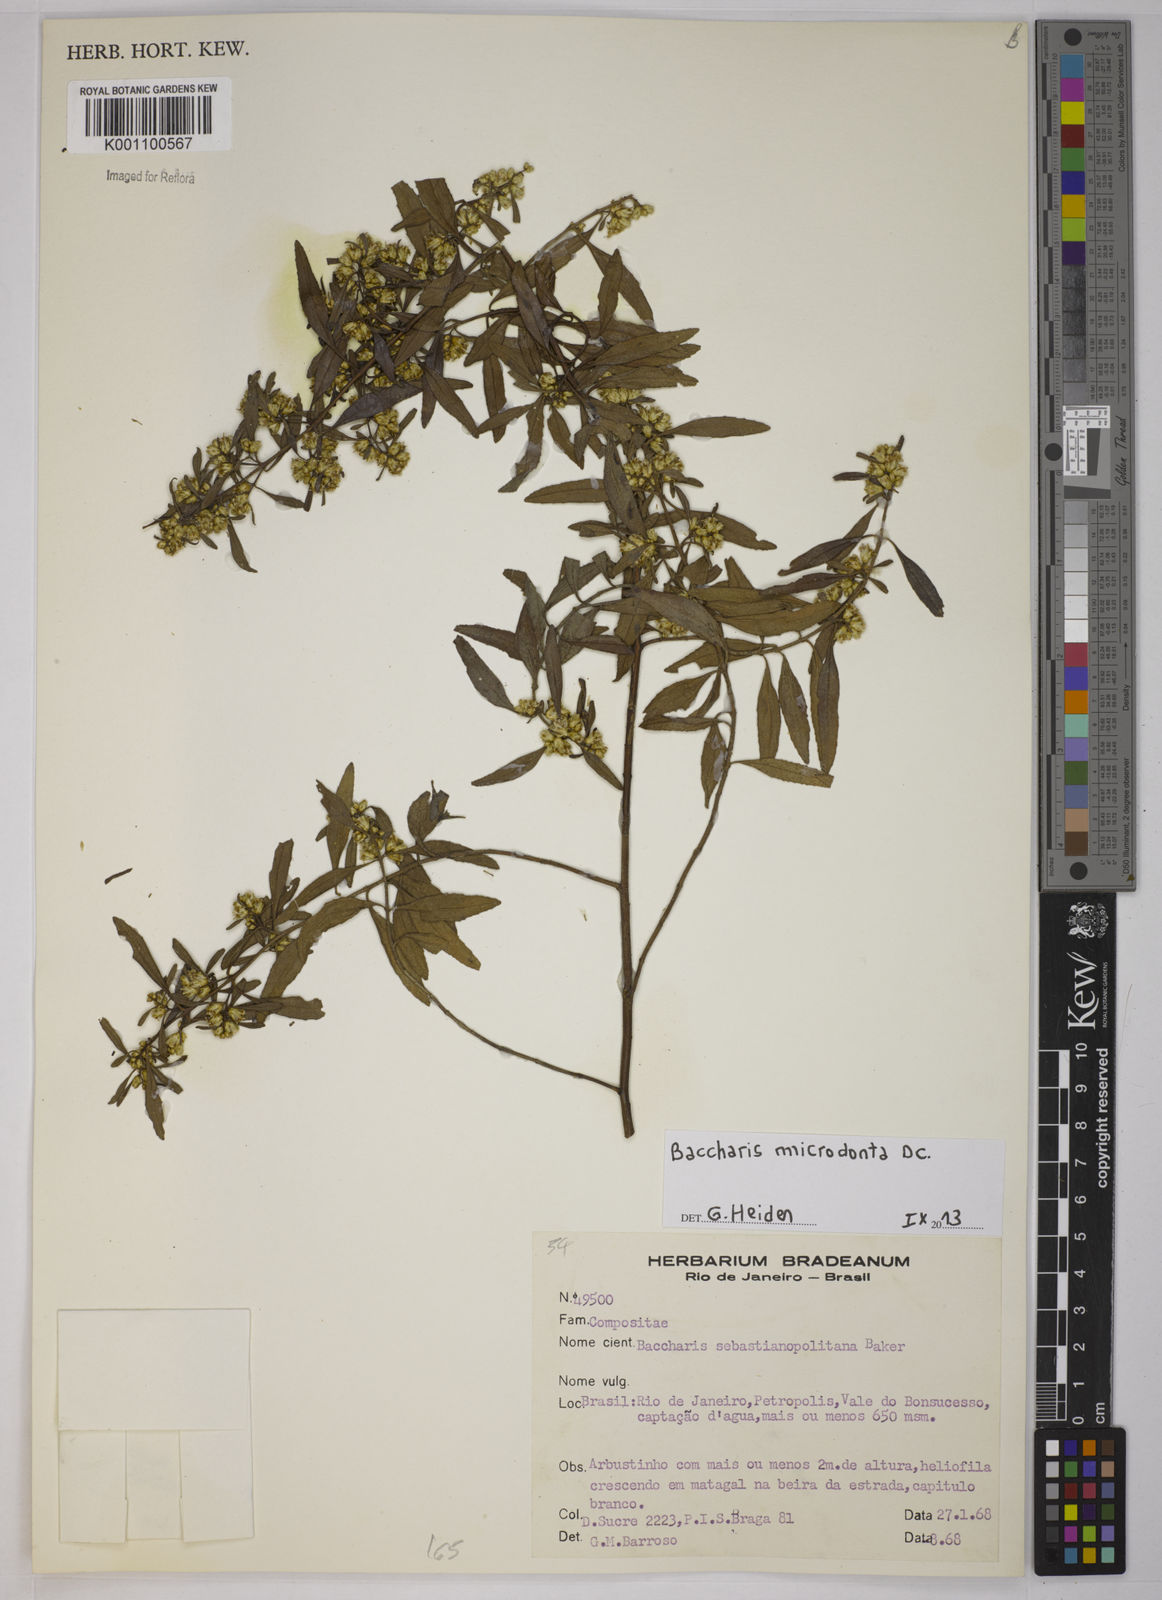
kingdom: Plantae
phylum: Tracheophyta
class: Magnoliopsida
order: Asterales
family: Asteraceae
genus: Baccharis
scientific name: Baccharis microdonta
